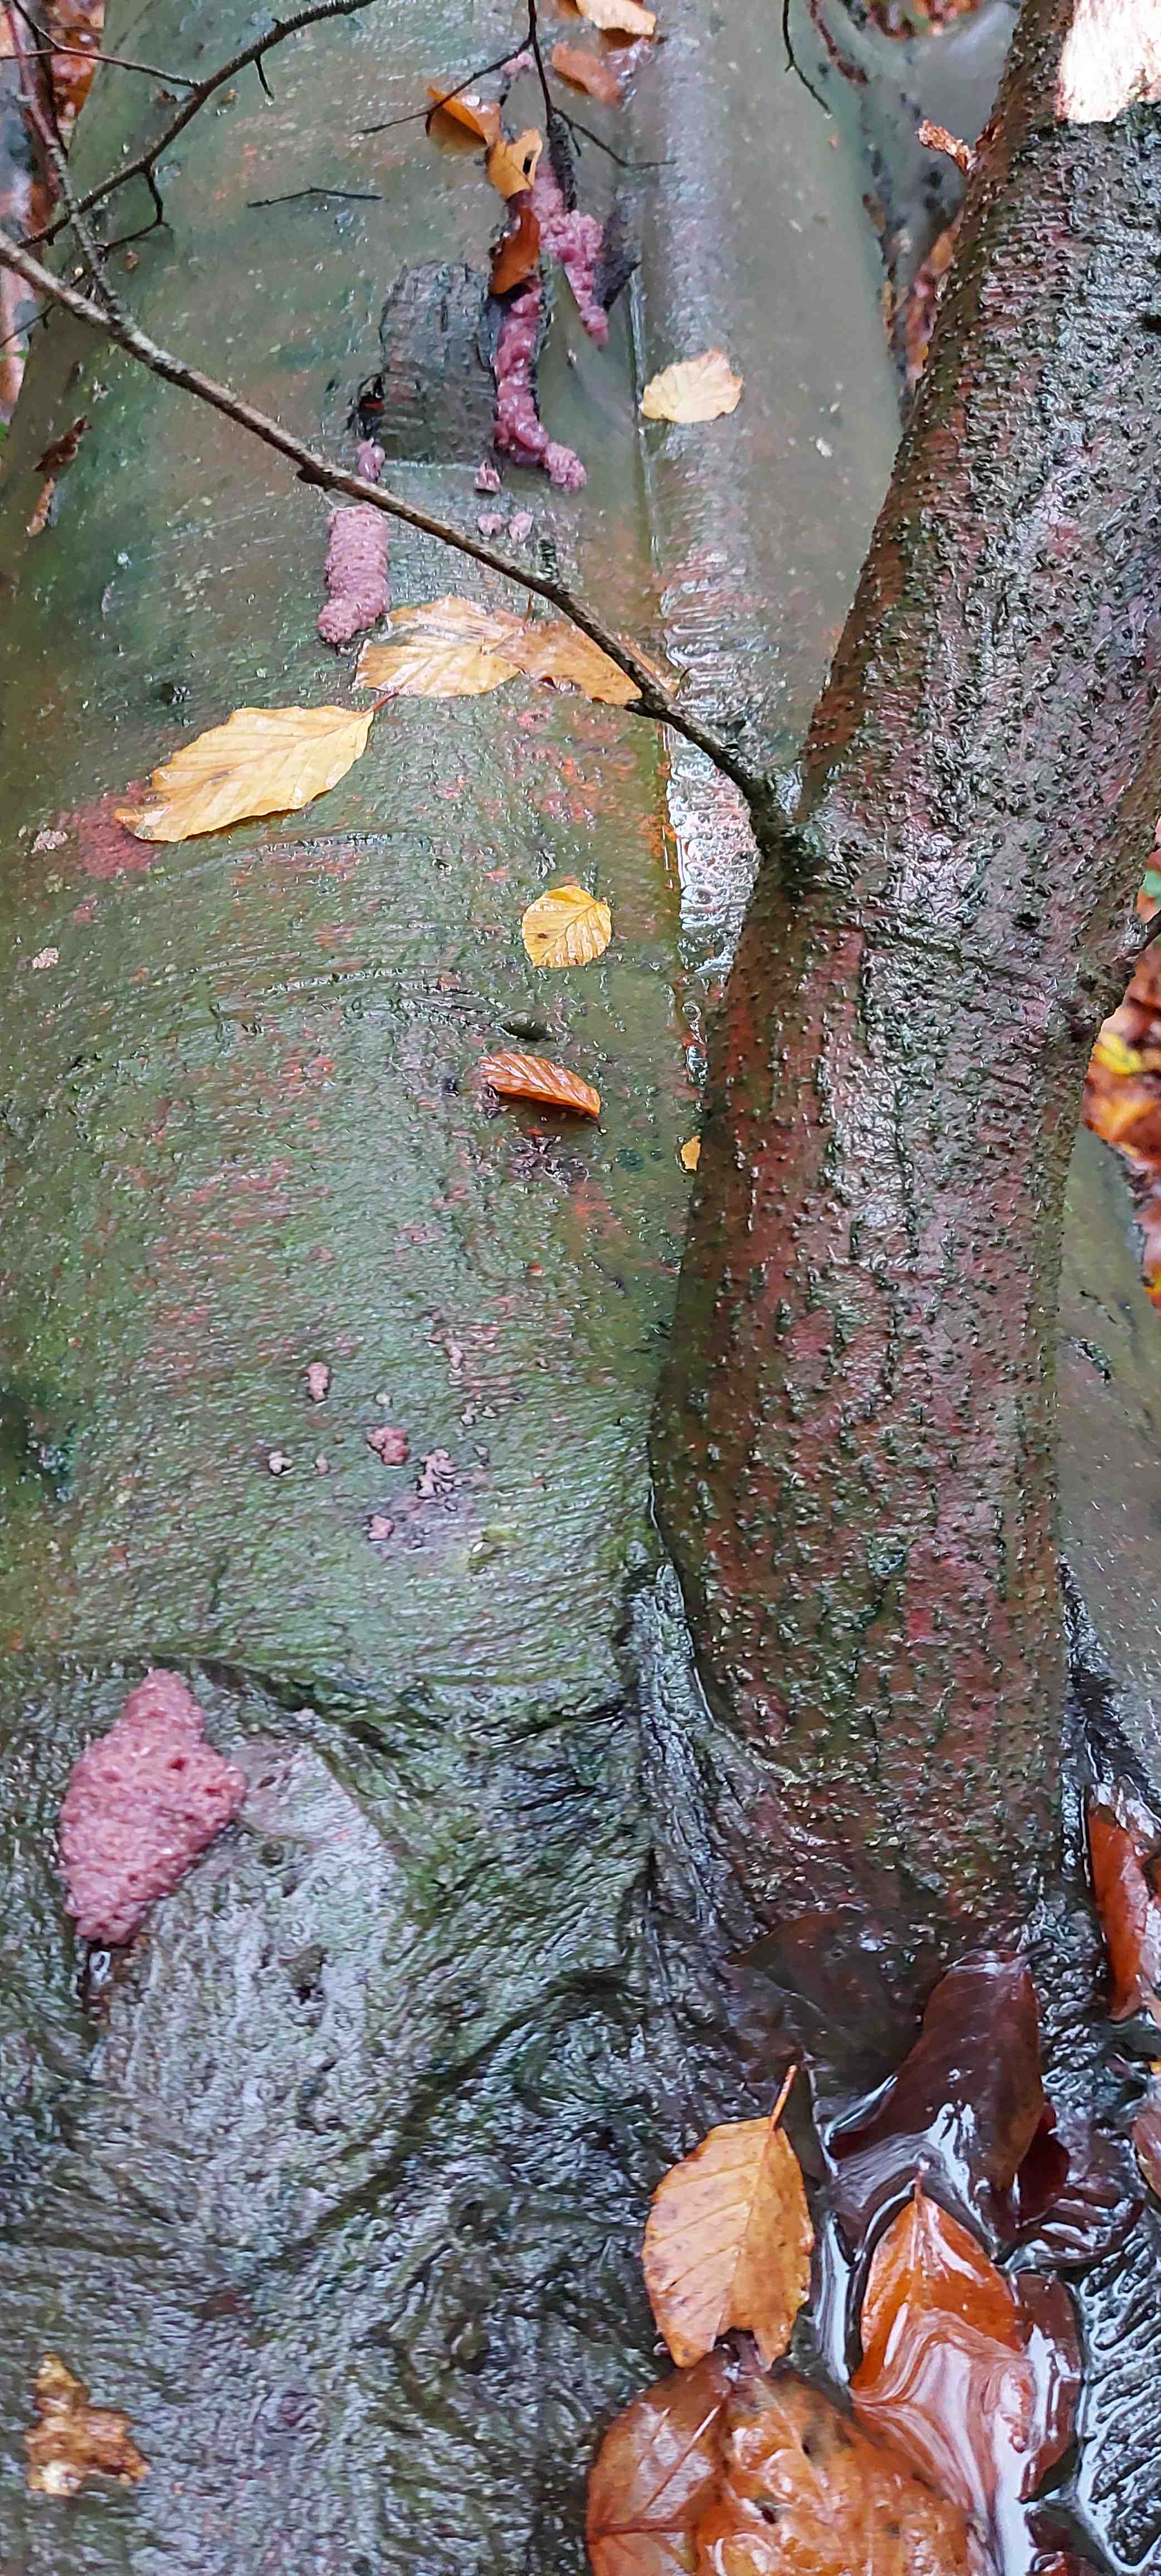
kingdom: Fungi
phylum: Ascomycota
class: Leotiomycetes
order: Helotiales
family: Gelatinodiscaceae
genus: Ascocoryne
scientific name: Ascocoryne sarcoides
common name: rødlilla sejskive
